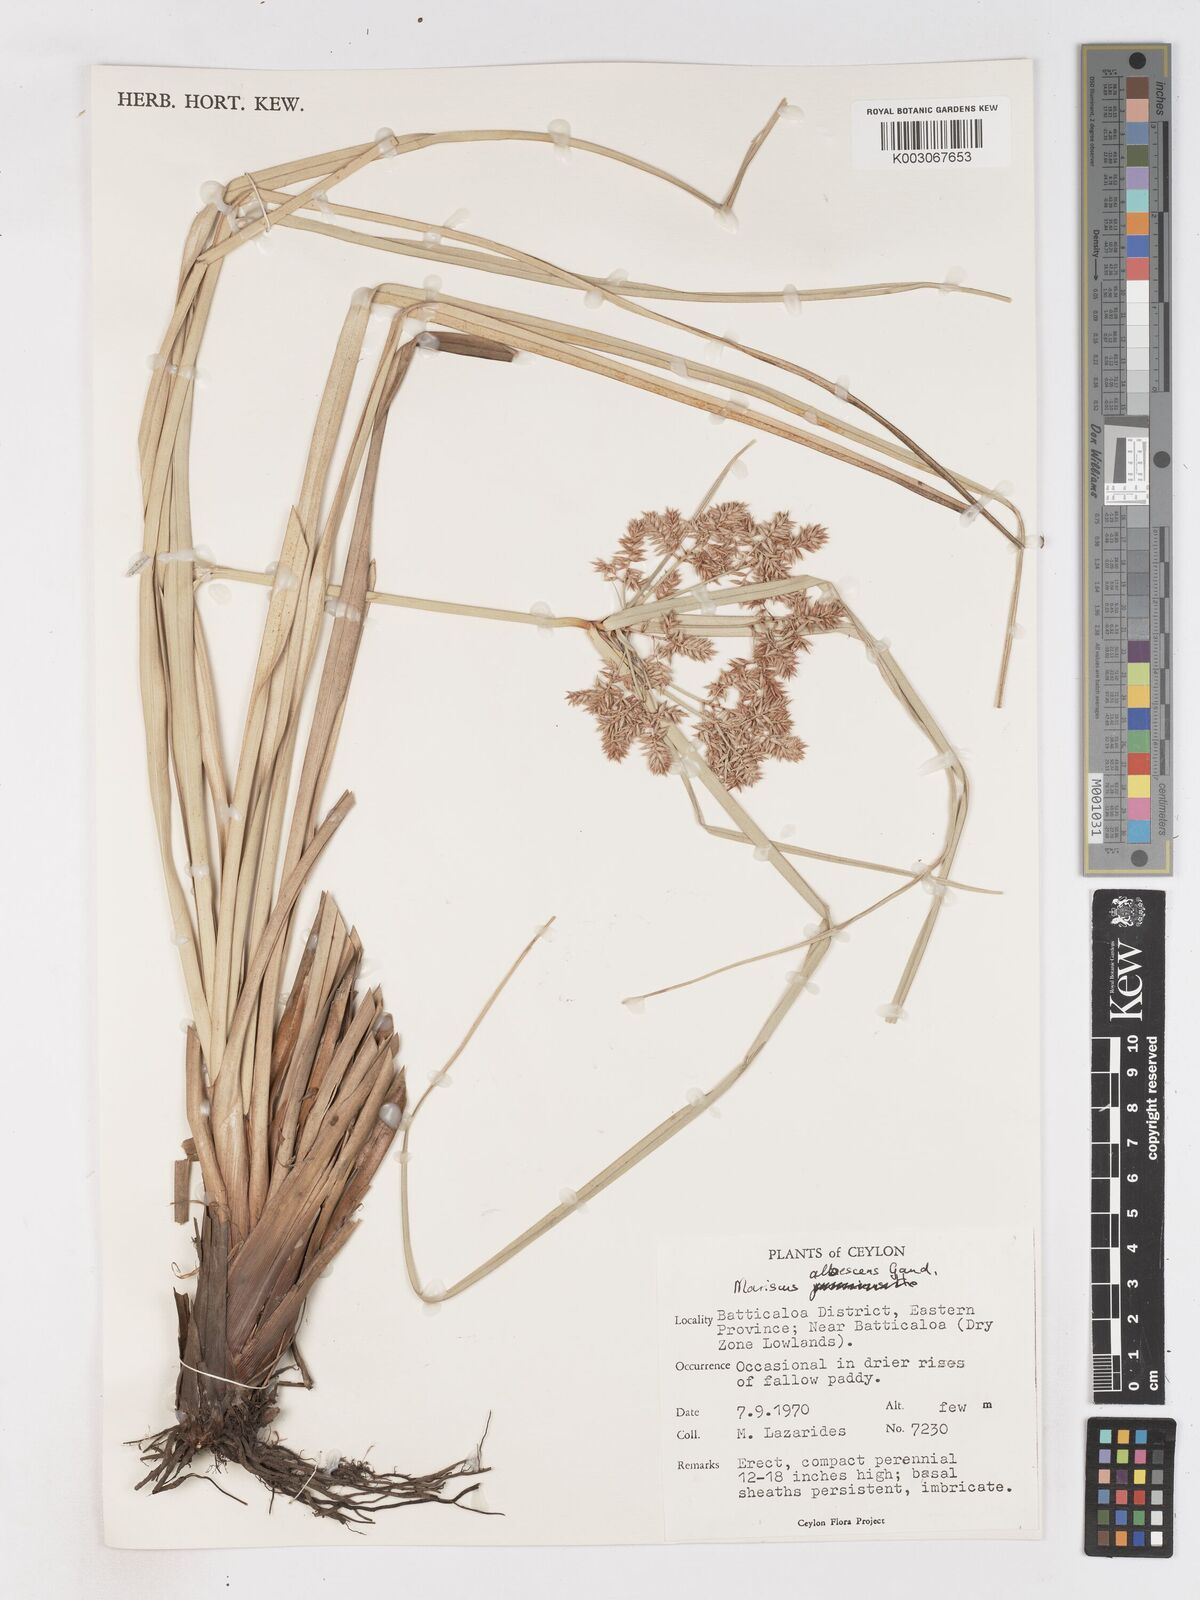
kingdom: Plantae
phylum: Tracheophyta
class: Liliopsida
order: Poales
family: Cyperaceae
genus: Cyperus
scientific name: Cyperus javanicus
